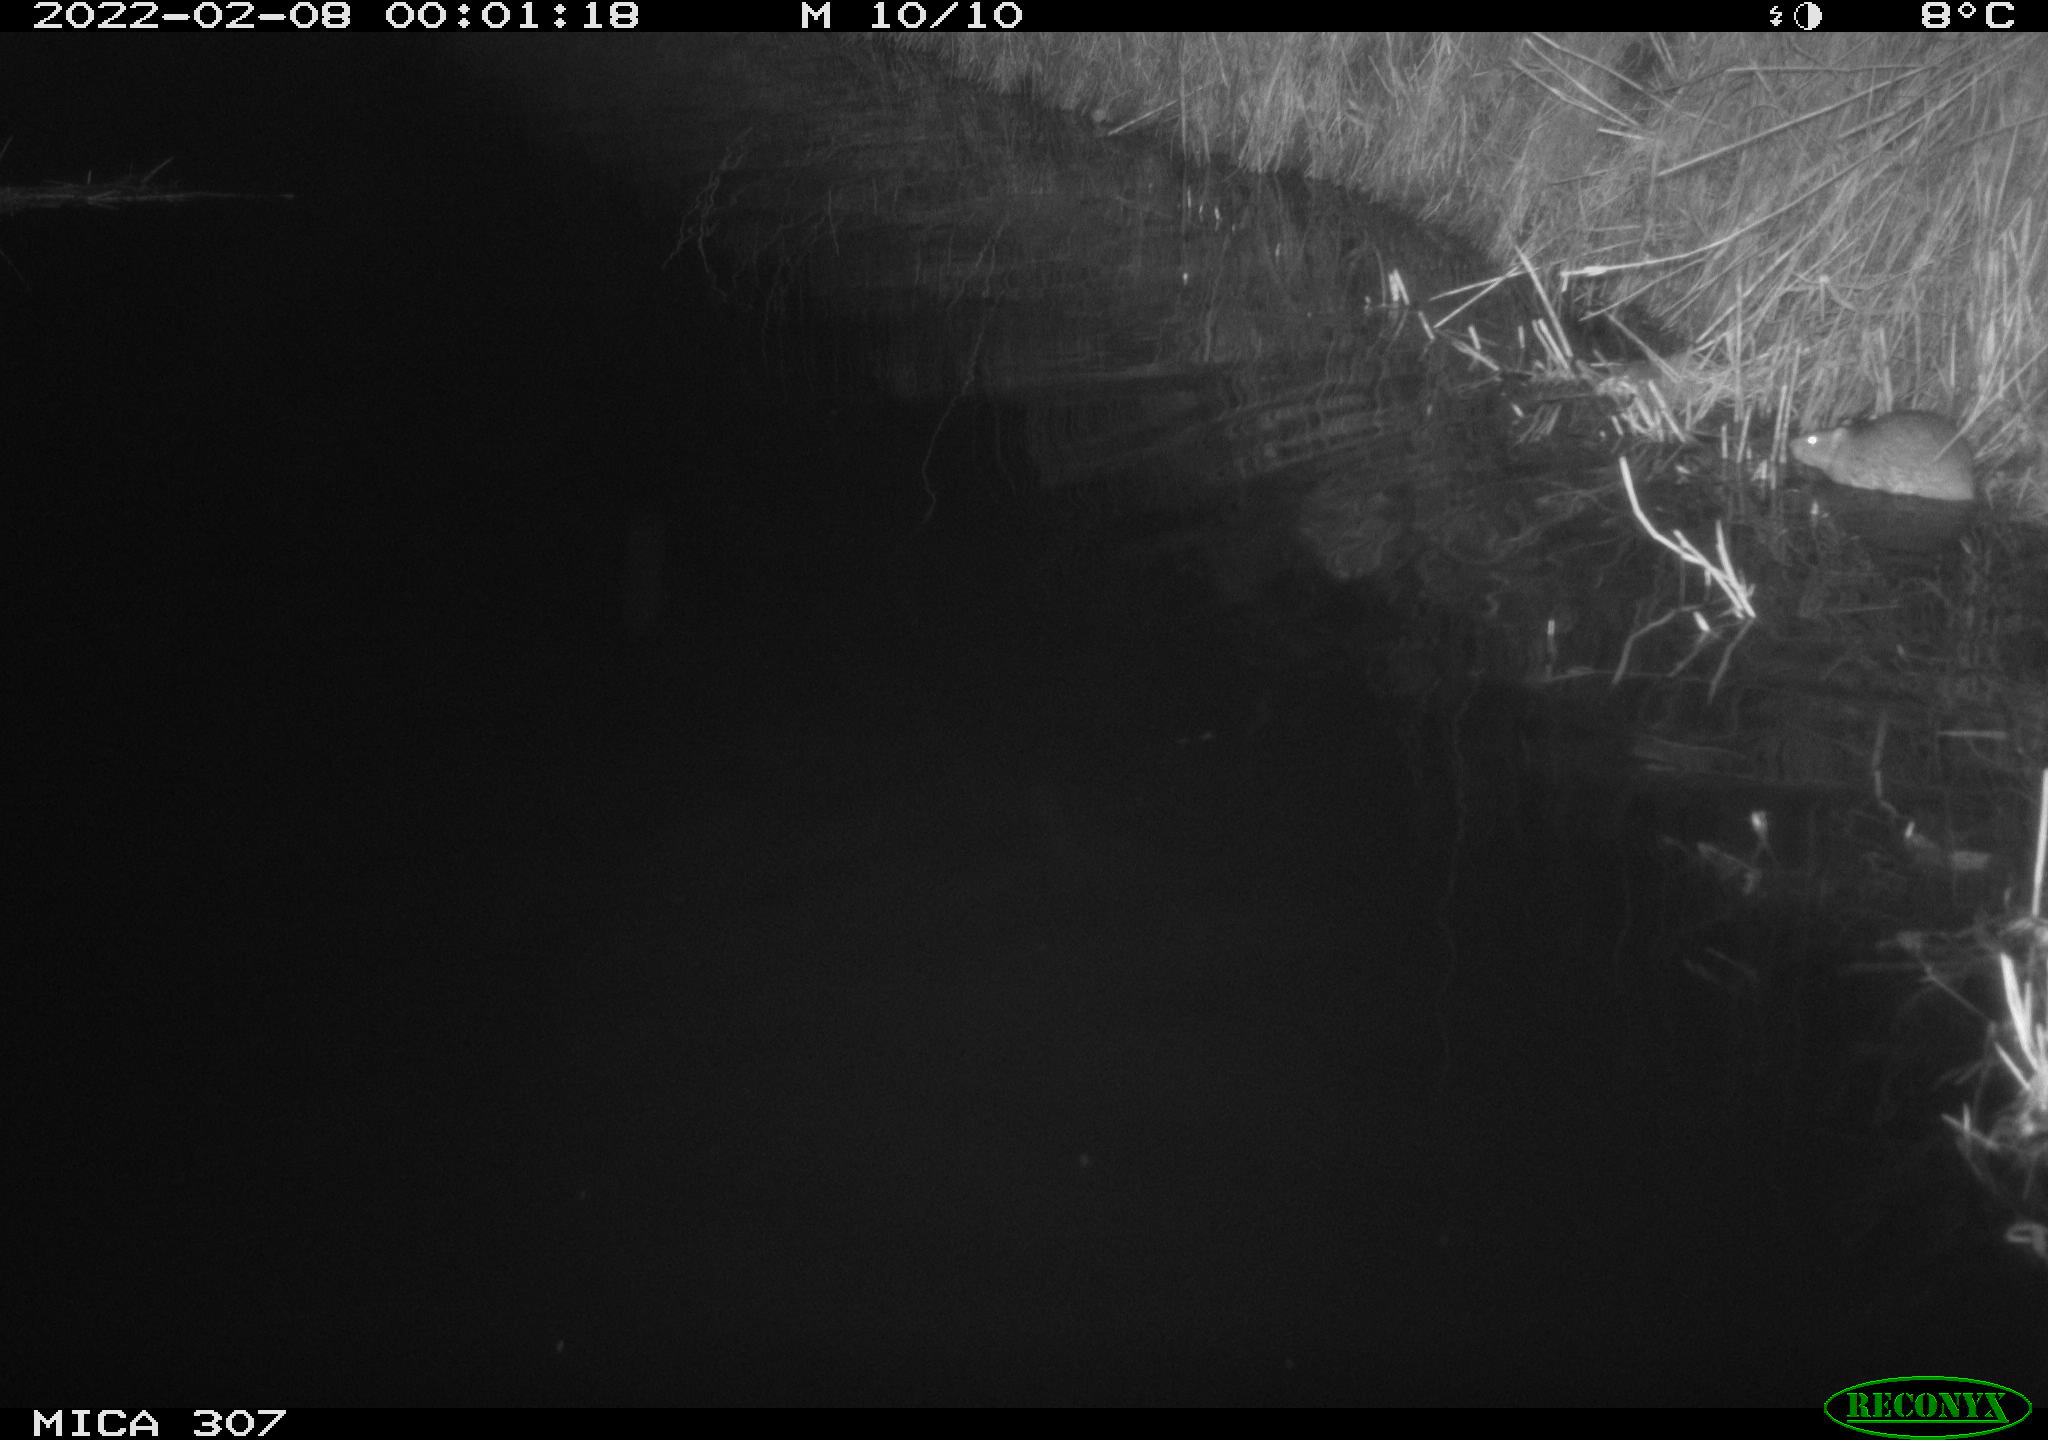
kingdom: Animalia
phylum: Chordata
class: Mammalia
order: Rodentia
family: Muridae
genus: Rattus
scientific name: Rattus norvegicus
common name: Brown rat
